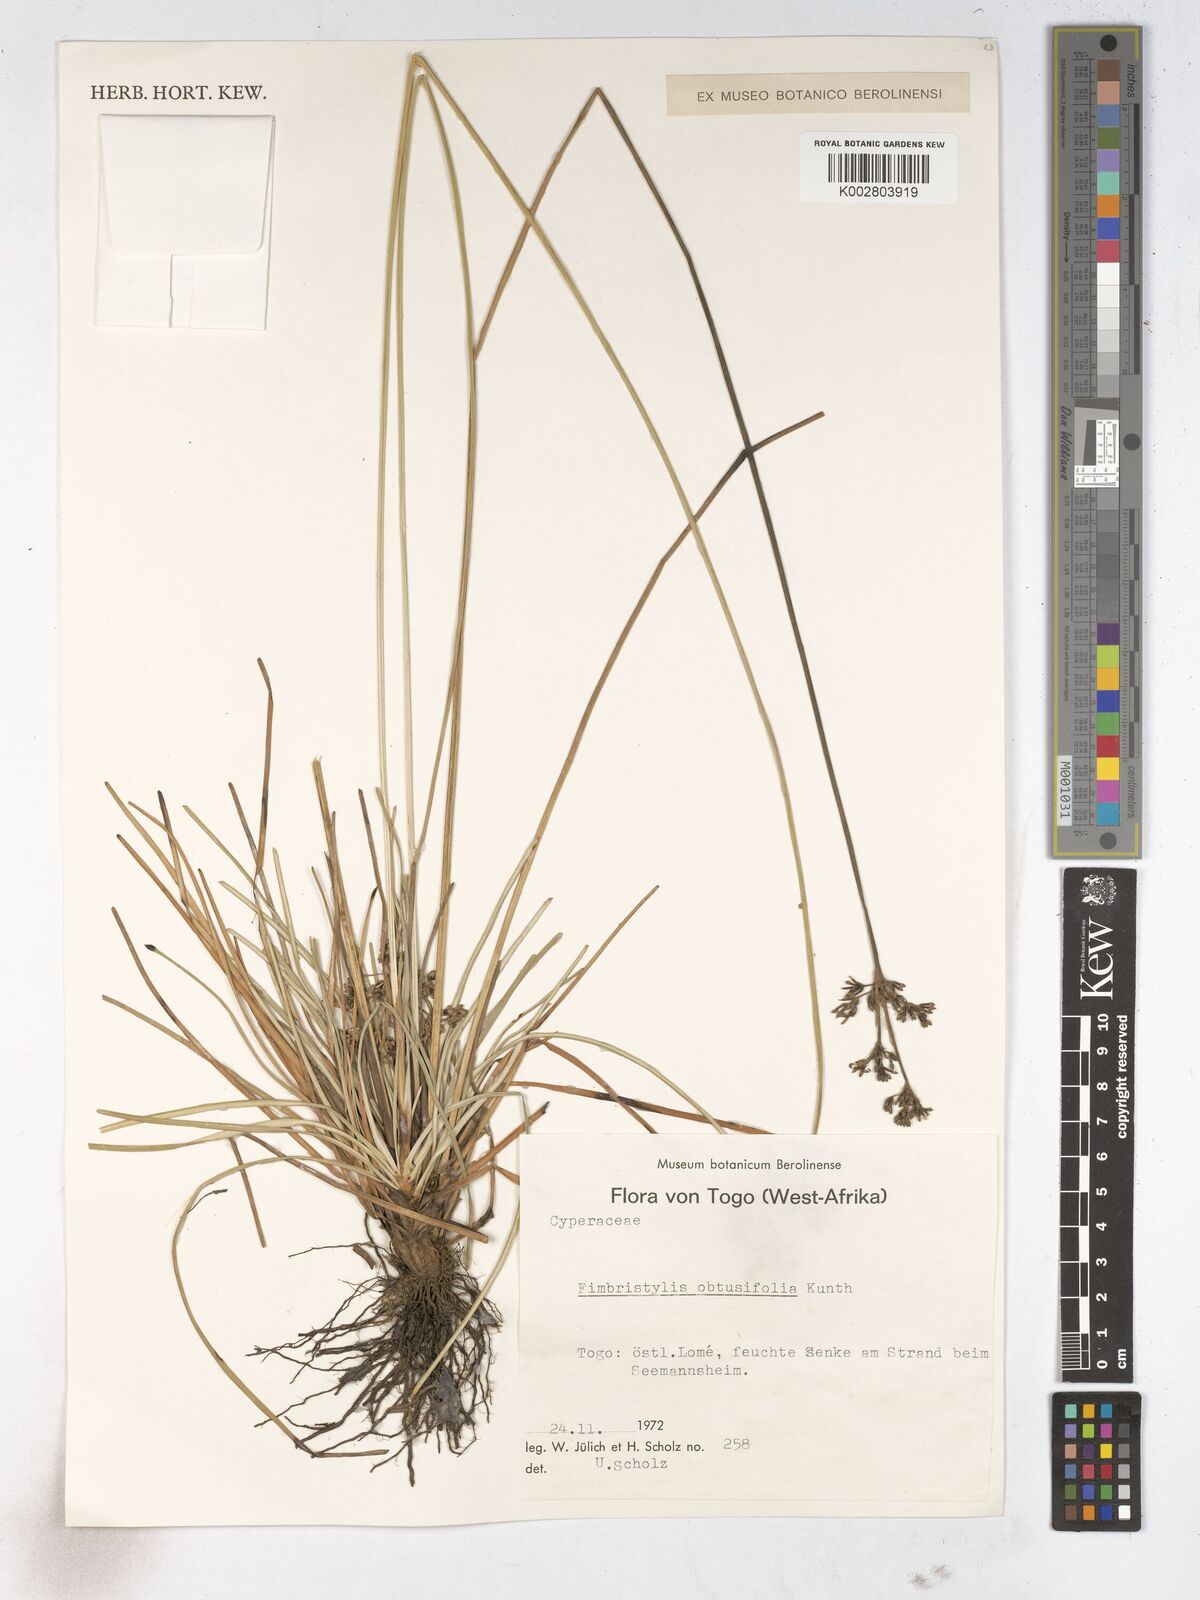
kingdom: Plantae
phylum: Tracheophyta
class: Liliopsida
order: Poales
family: Cyperaceae
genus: Fimbristylis
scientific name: Fimbristylis cymosa
